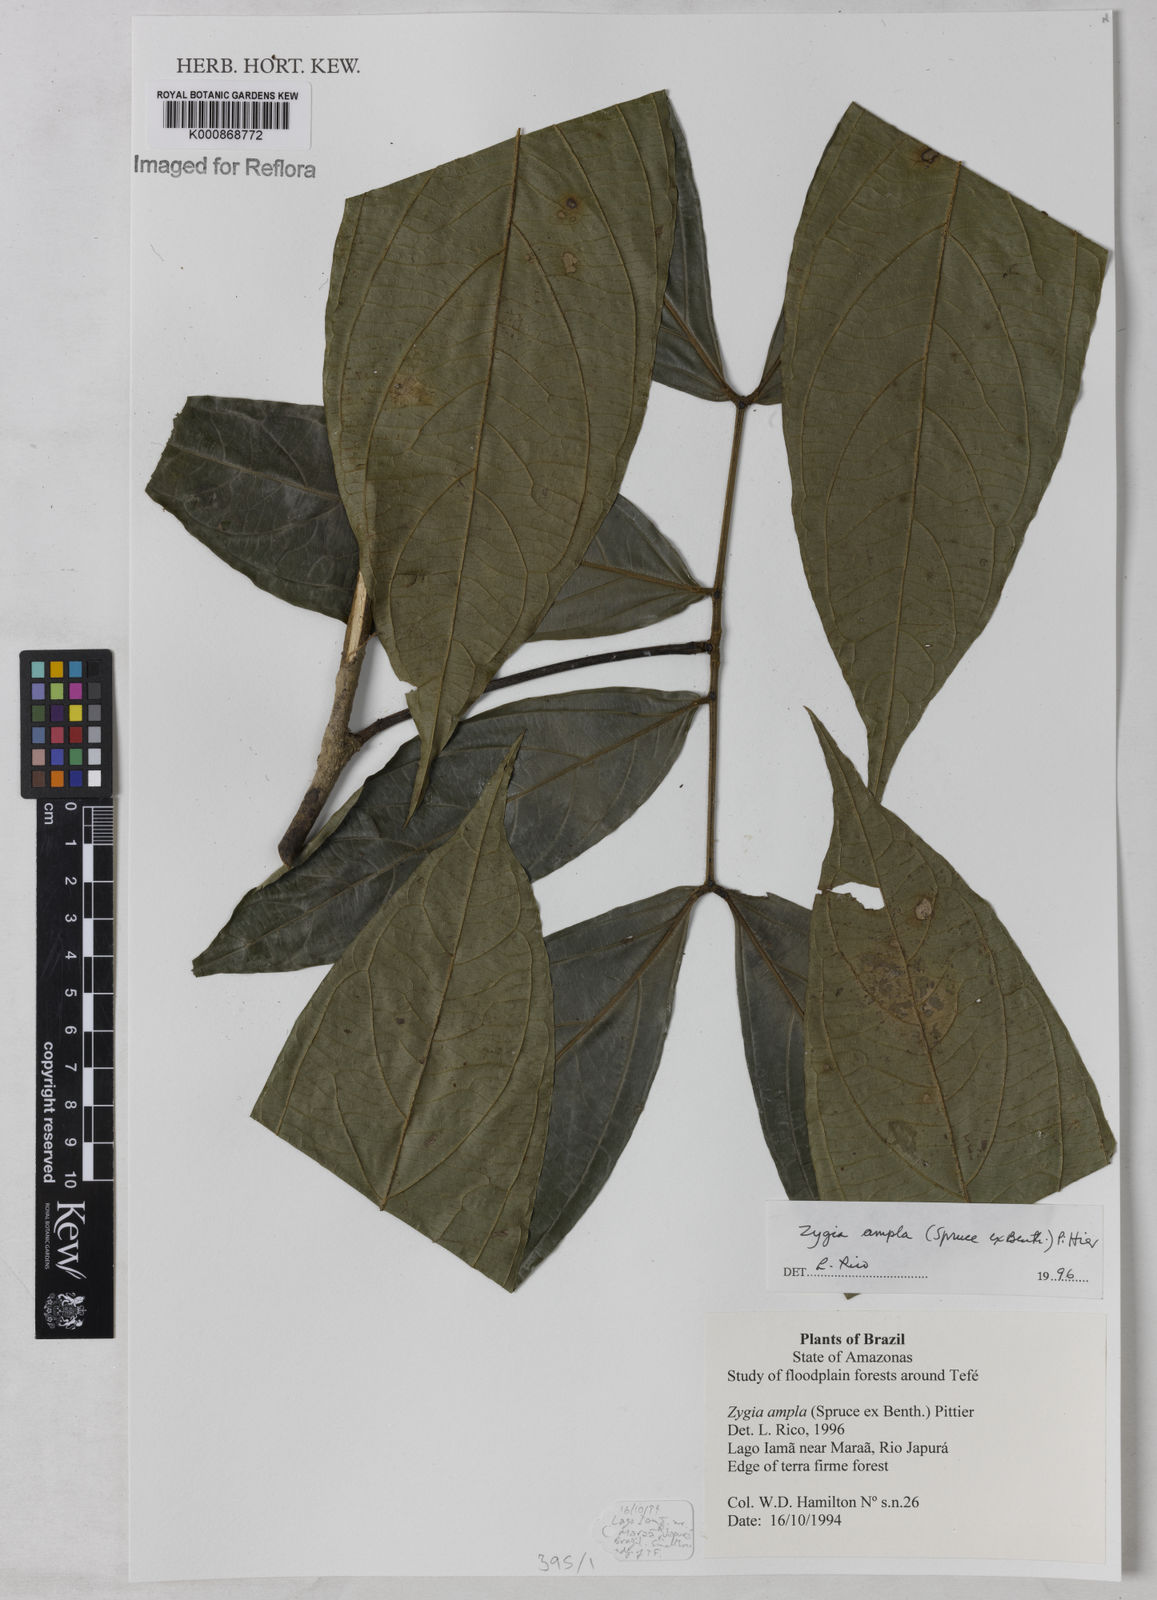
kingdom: Plantae
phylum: Tracheophyta
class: Magnoliopsida
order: Fabales
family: Fabaceae
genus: Zygia
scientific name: Zygia ampla
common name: Jarendeua de sapo
